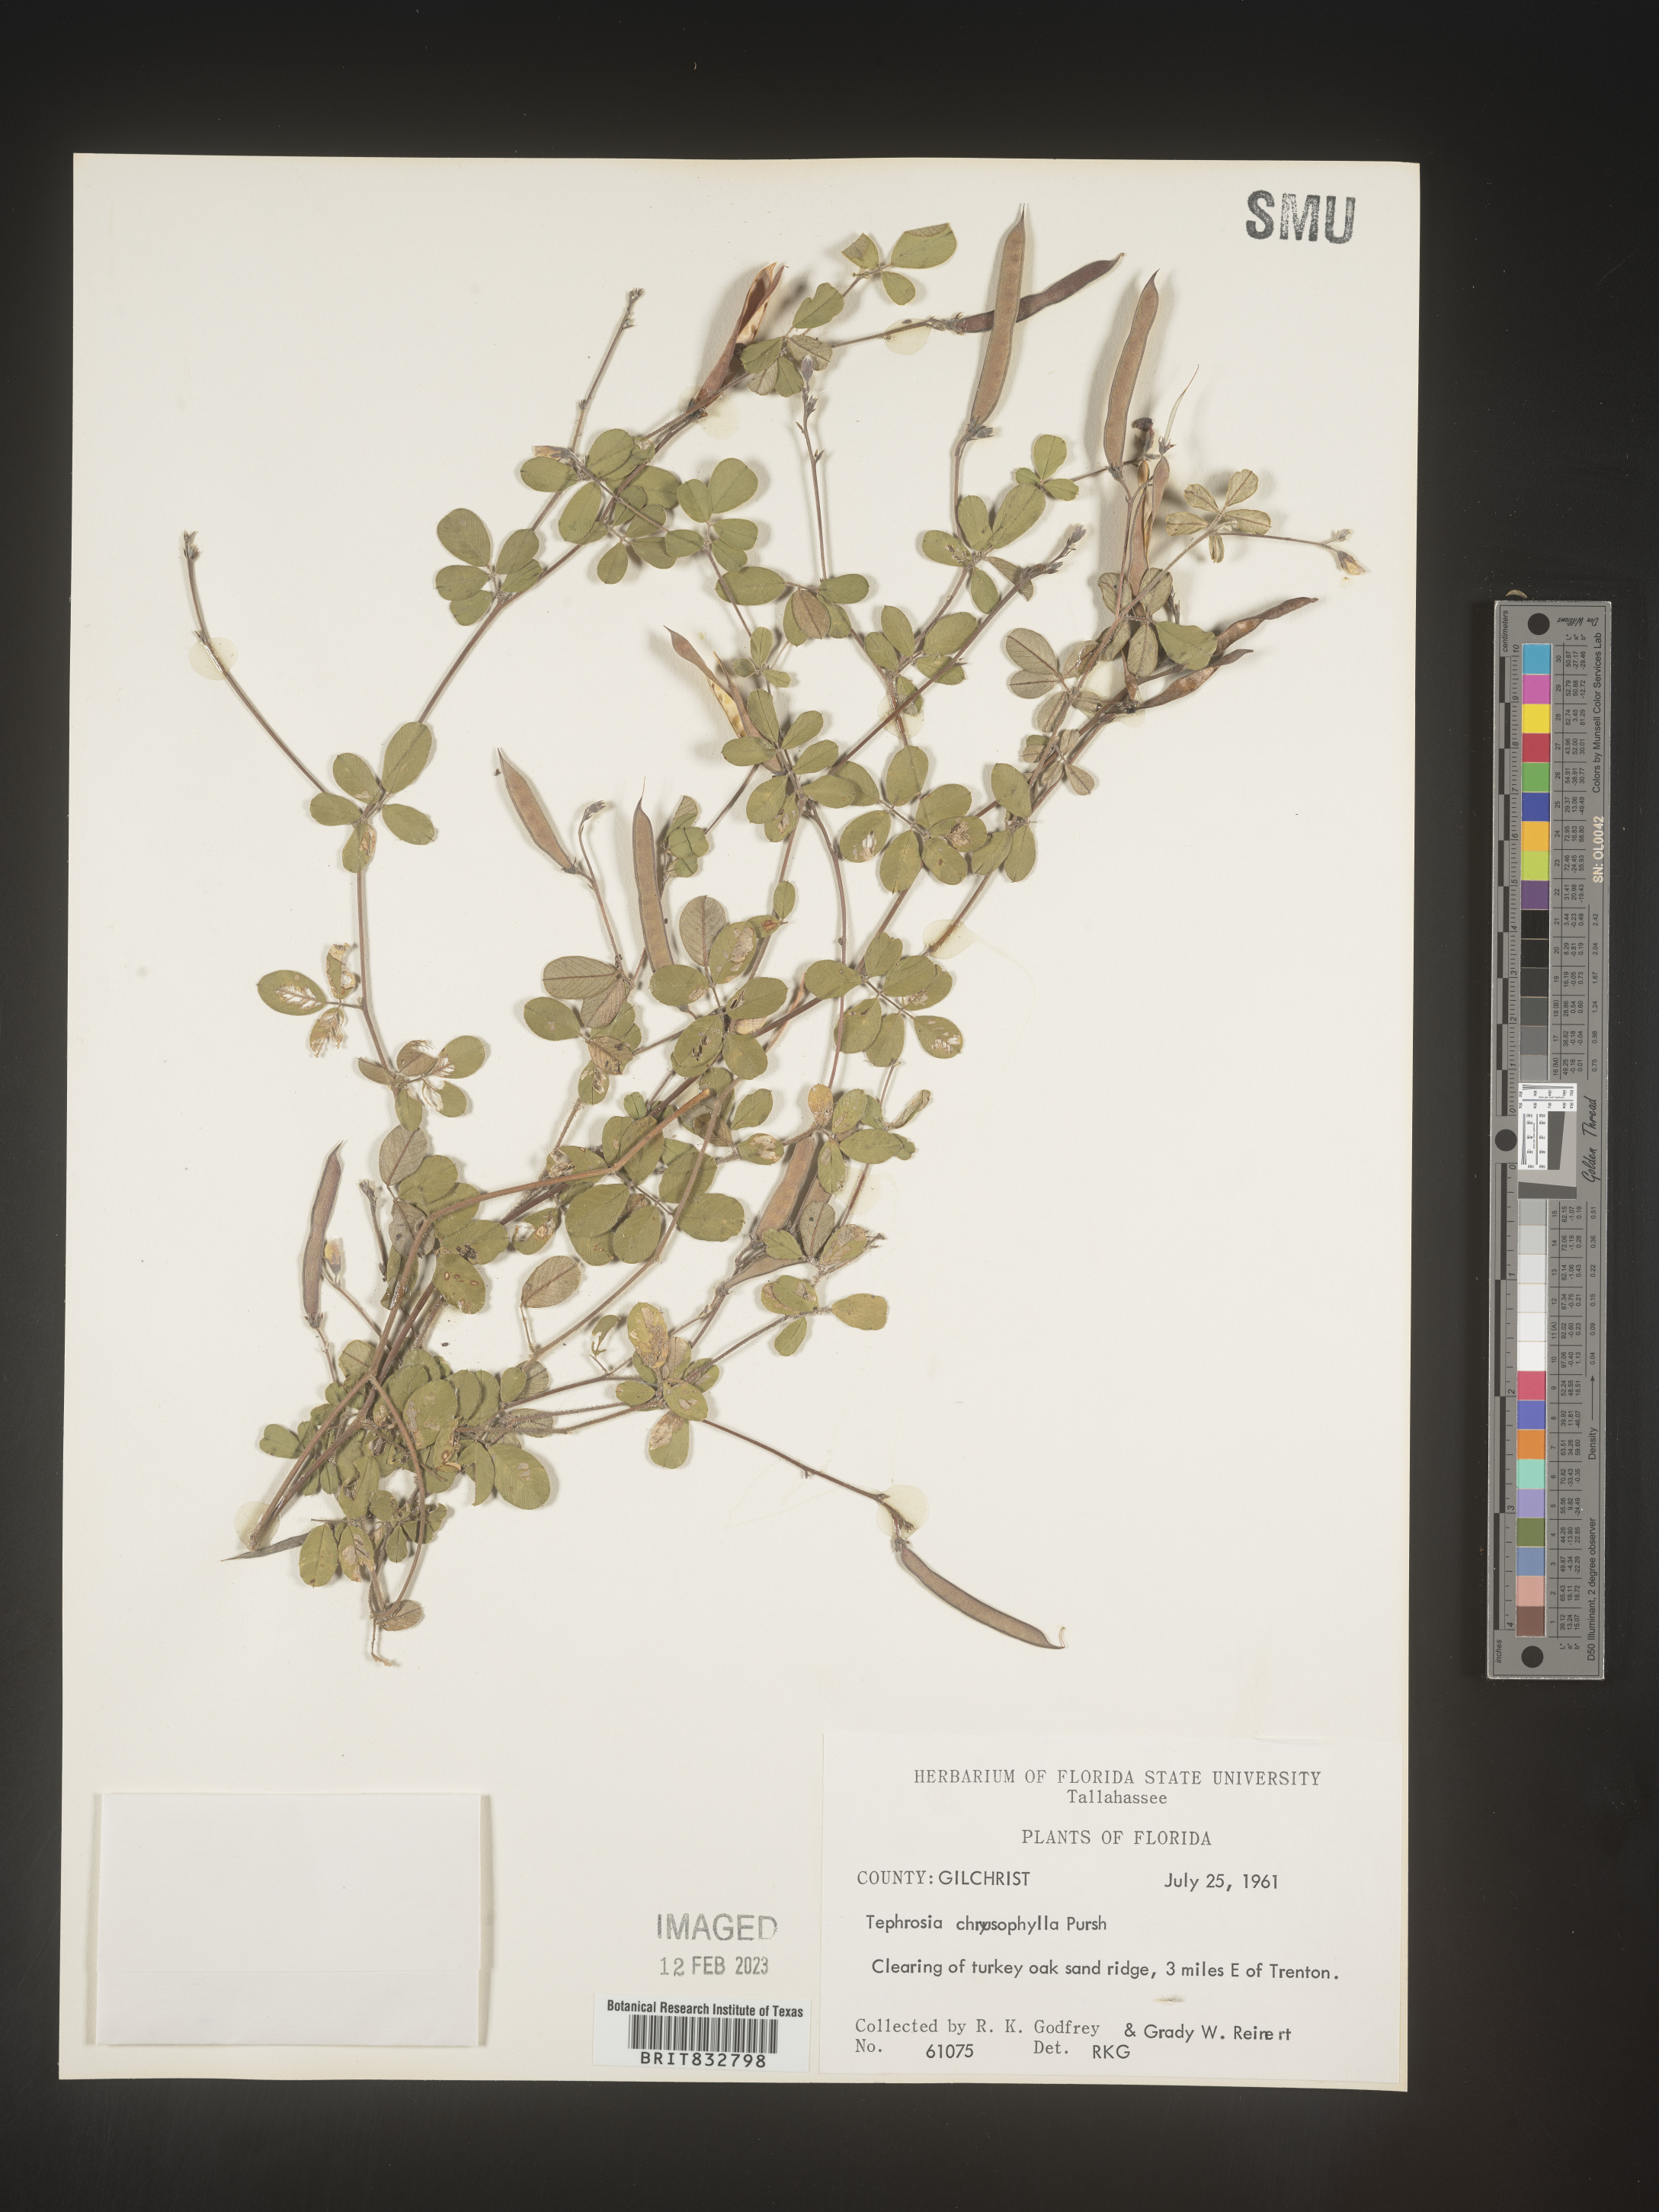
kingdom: Plantae
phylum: Tracheophyta
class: Magnoliopsida
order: Fabales
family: Fabaceae
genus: Tephrosia
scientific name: Tephrosia chrysophylla
